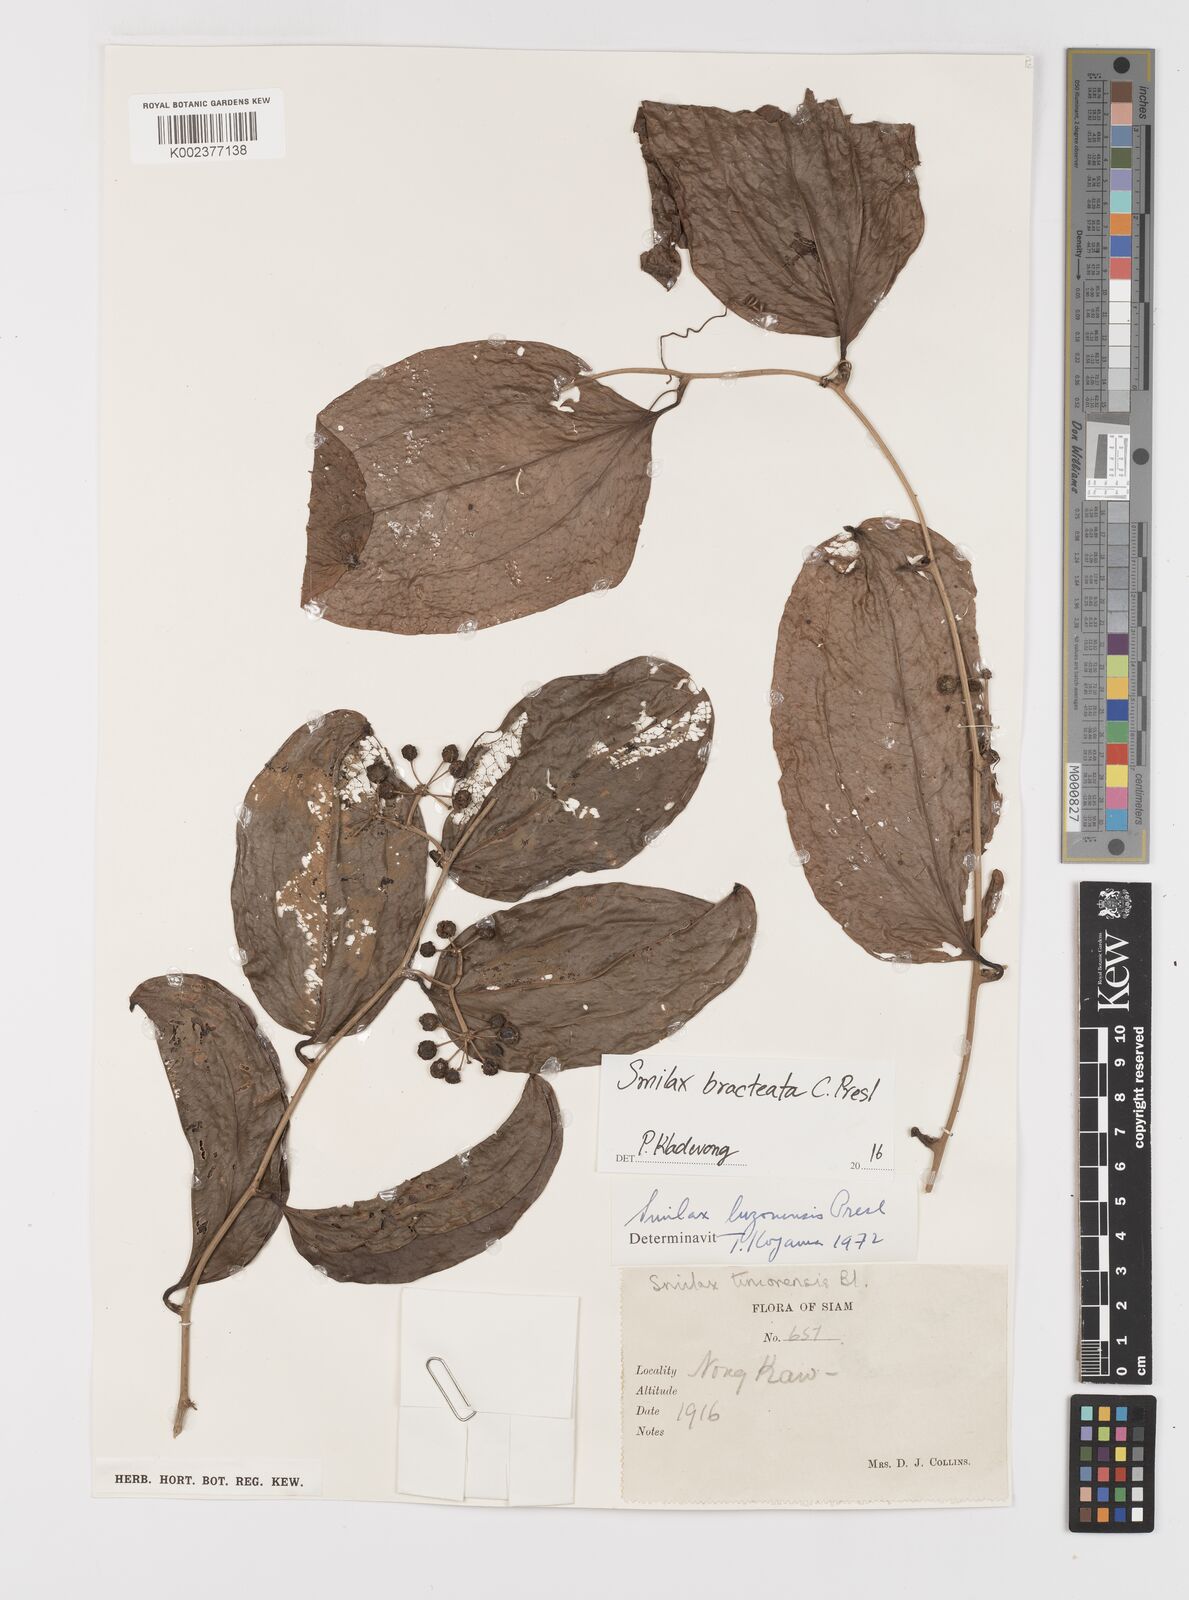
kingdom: Plantae
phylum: Tracheophyta
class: Liliopsida
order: Liliales
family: Smilacaceae
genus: Smilax
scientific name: Smilax bracteata
